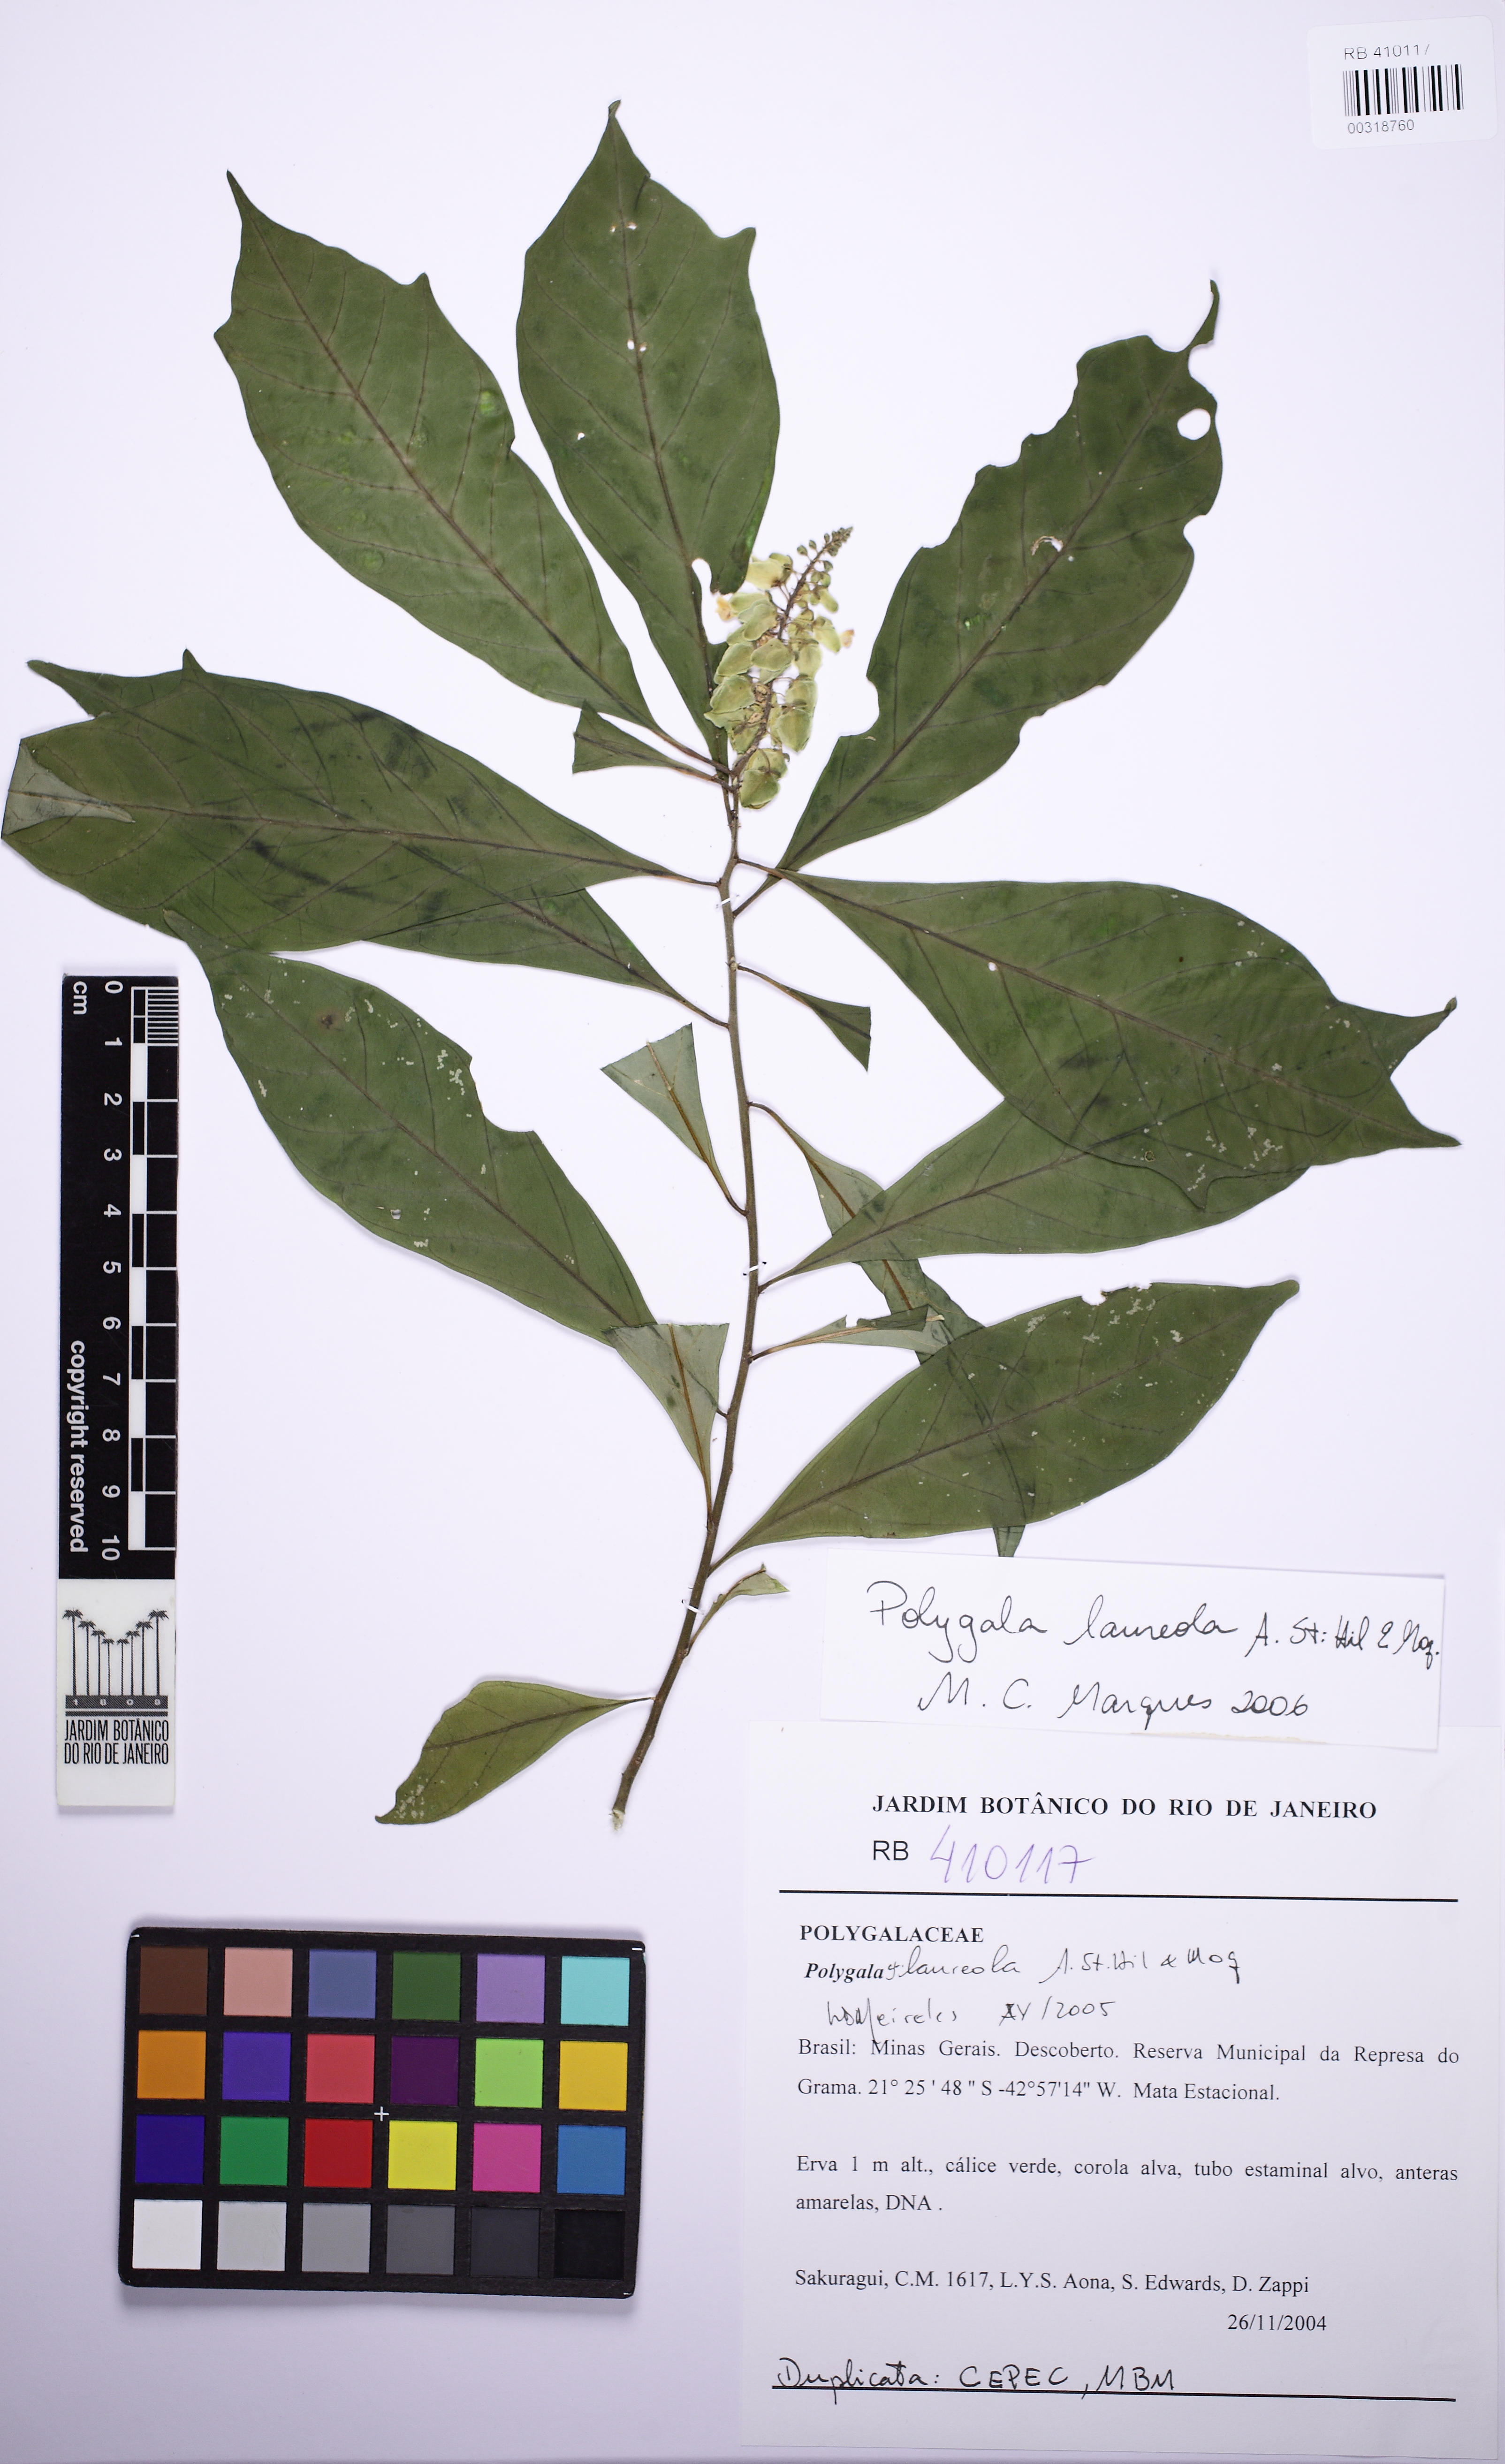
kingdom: Plantae
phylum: Tracheophyta
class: Magnoliopsida
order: Fabales
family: Polygalaceae
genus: Caamembeca
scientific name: Caamembeca salicifolia
